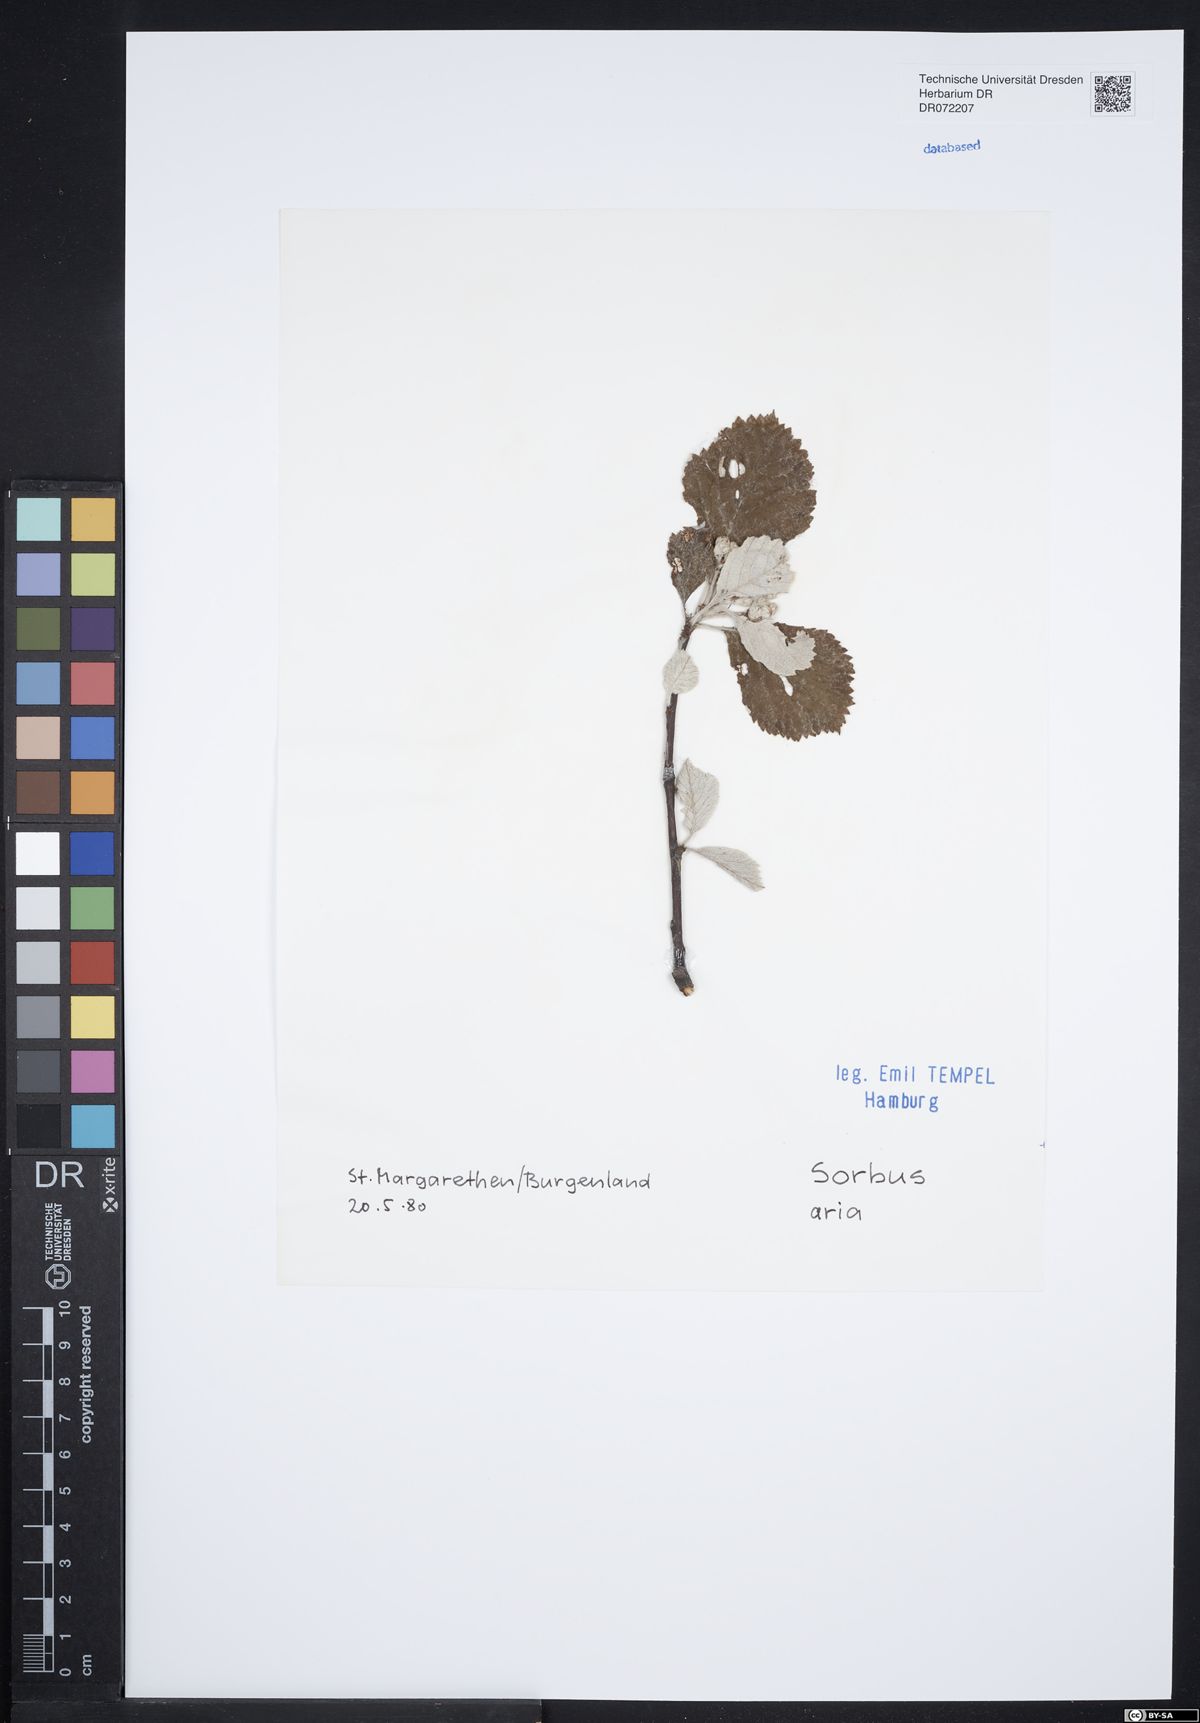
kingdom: Plantae
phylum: Tracheophyta
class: Magnoliopsida
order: Rosales
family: Rosaceae
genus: Aria
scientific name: Aria edulis
